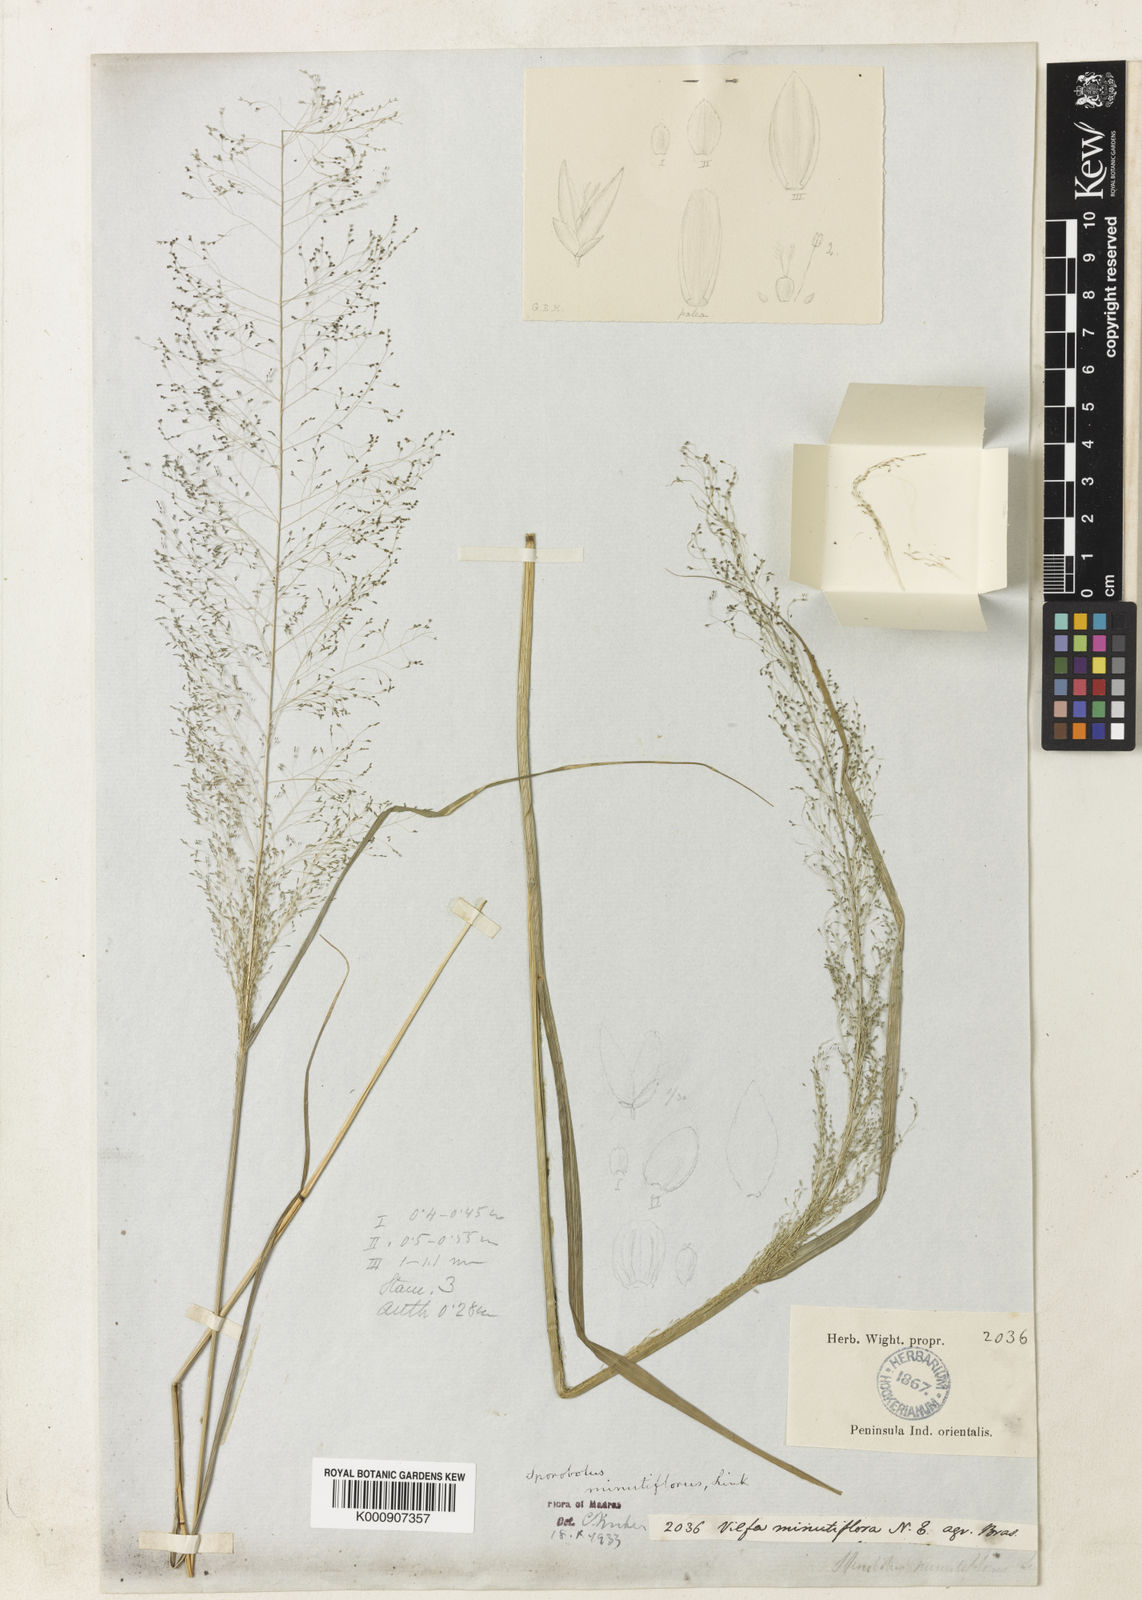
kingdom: Plantae
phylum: Tracheophyta
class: Liliopsida
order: Poales
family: Poaceae
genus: Sporobolus
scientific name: Sporobolus tenuissimus
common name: Tropical dropseed
